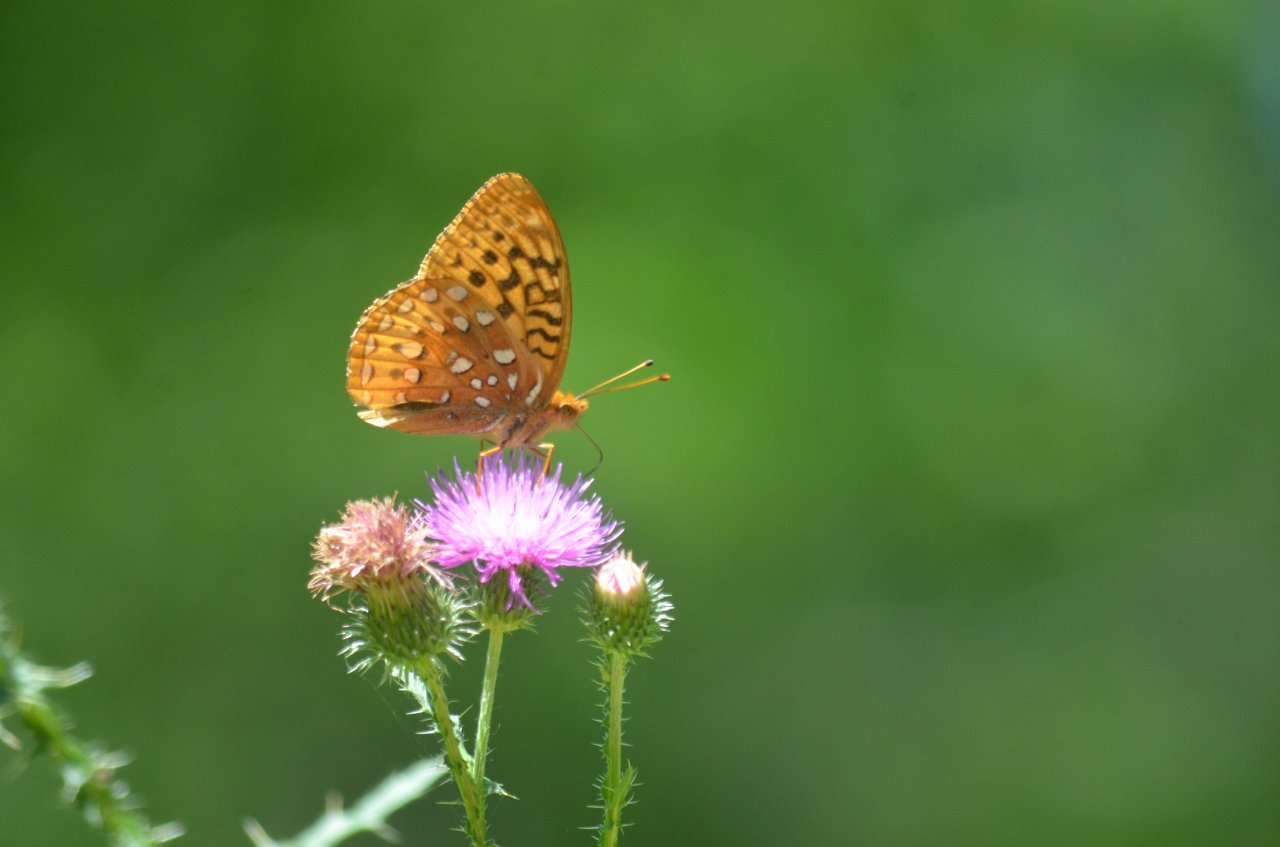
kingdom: Animalia
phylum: Arthropoda
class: Insecta
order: Lepidoptera
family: Nymphalidae
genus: Speyeria
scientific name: Speyeria cybele
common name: Great Spangled Fritillary
